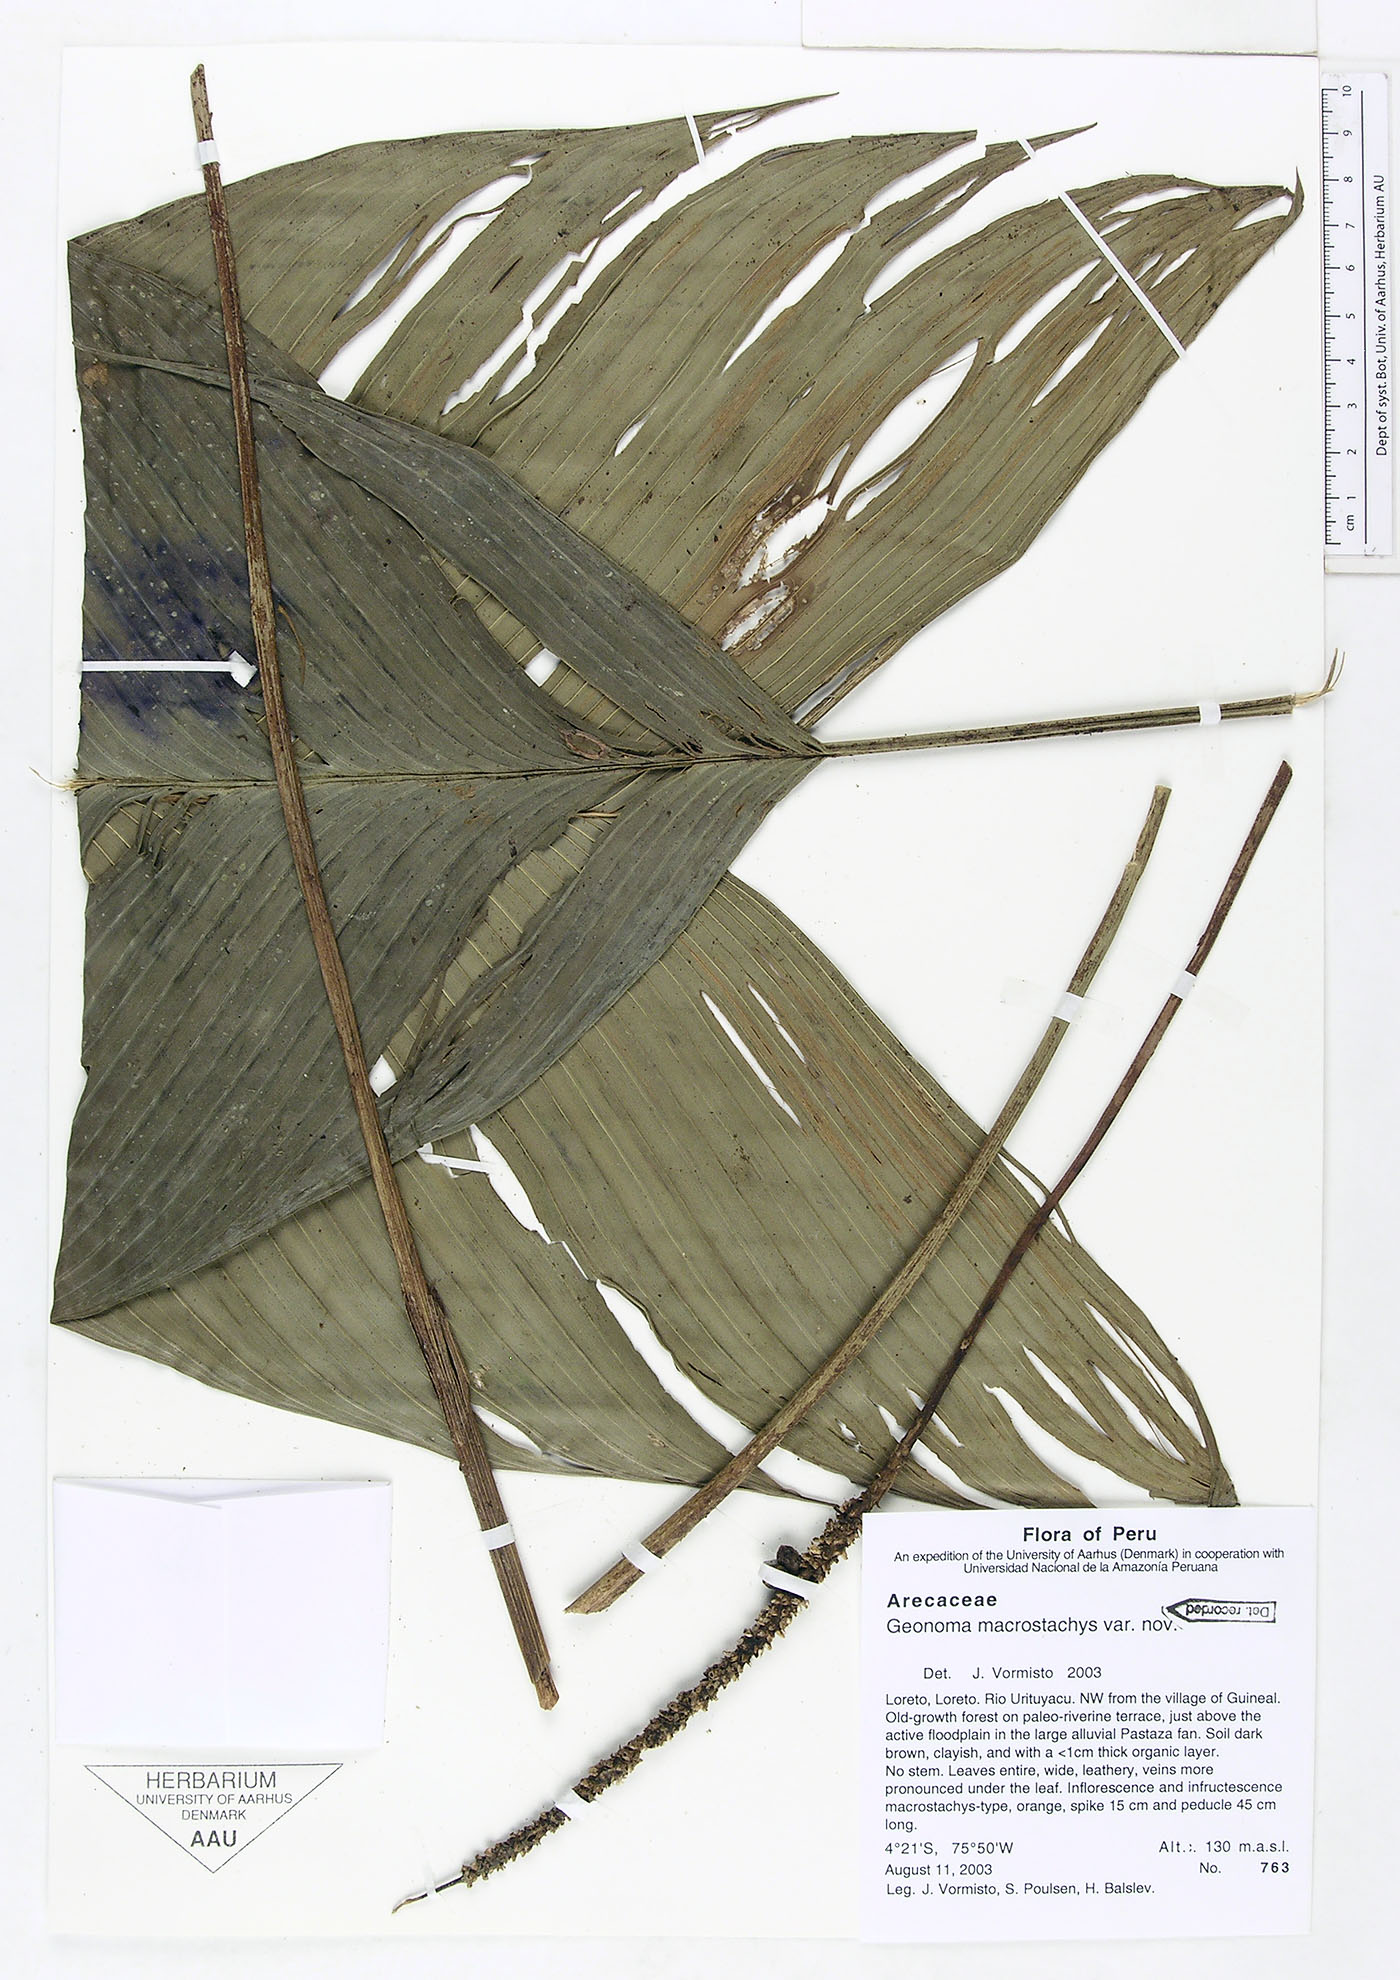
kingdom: Plantae
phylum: Tracheophyta
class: Liliopsida
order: Arecales
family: Arecaceae
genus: Geonoma
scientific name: Geonoma macrostachys
